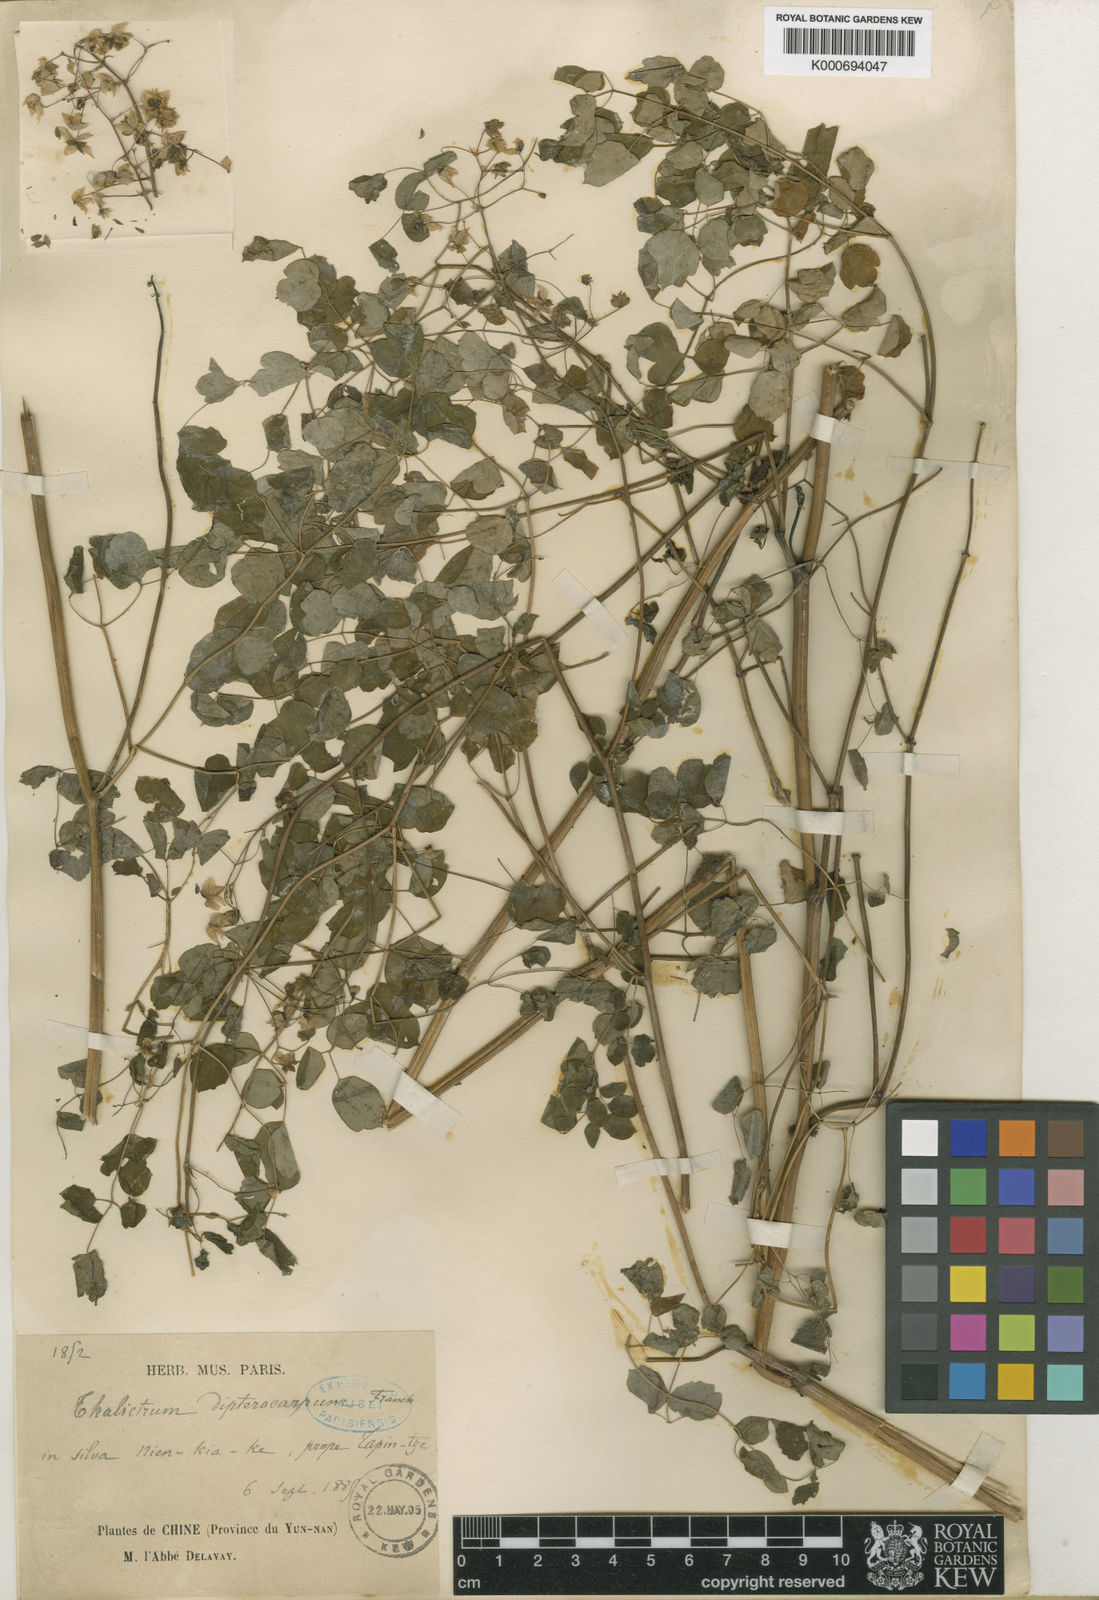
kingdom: Plantae
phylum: Tracheophyta
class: Magnoliopsida
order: Ranunculales
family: Ranunculaceae
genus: Thalictrum
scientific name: Thalictrum delavayi
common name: Chinese meadow-rue
